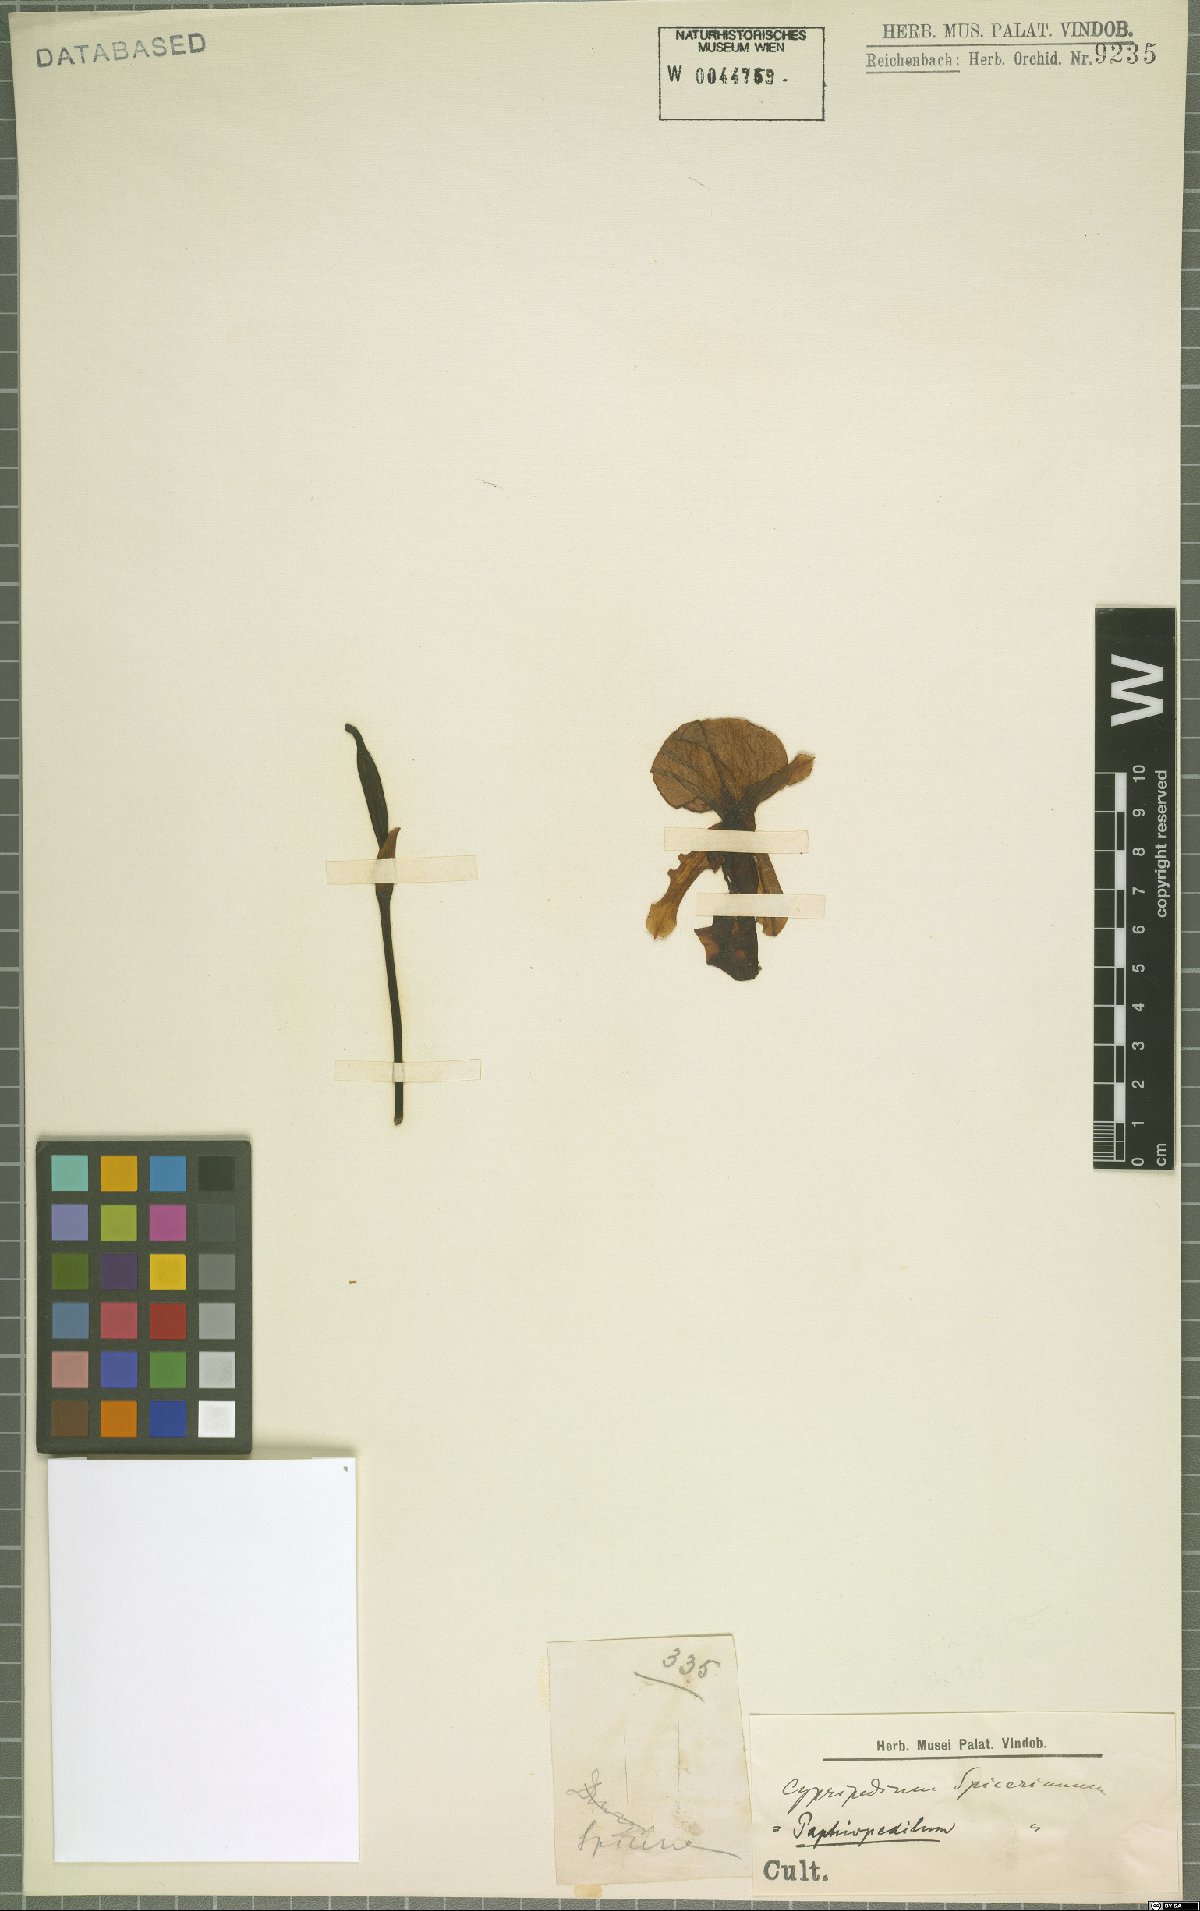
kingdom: Plantae
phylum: Tracheophyta
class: Liliopsida
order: Asparagales
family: Orchidaceae
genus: Paphiopedilum
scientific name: Paphiopedilum spicerianum
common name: Spicer’s paphiopedilum
